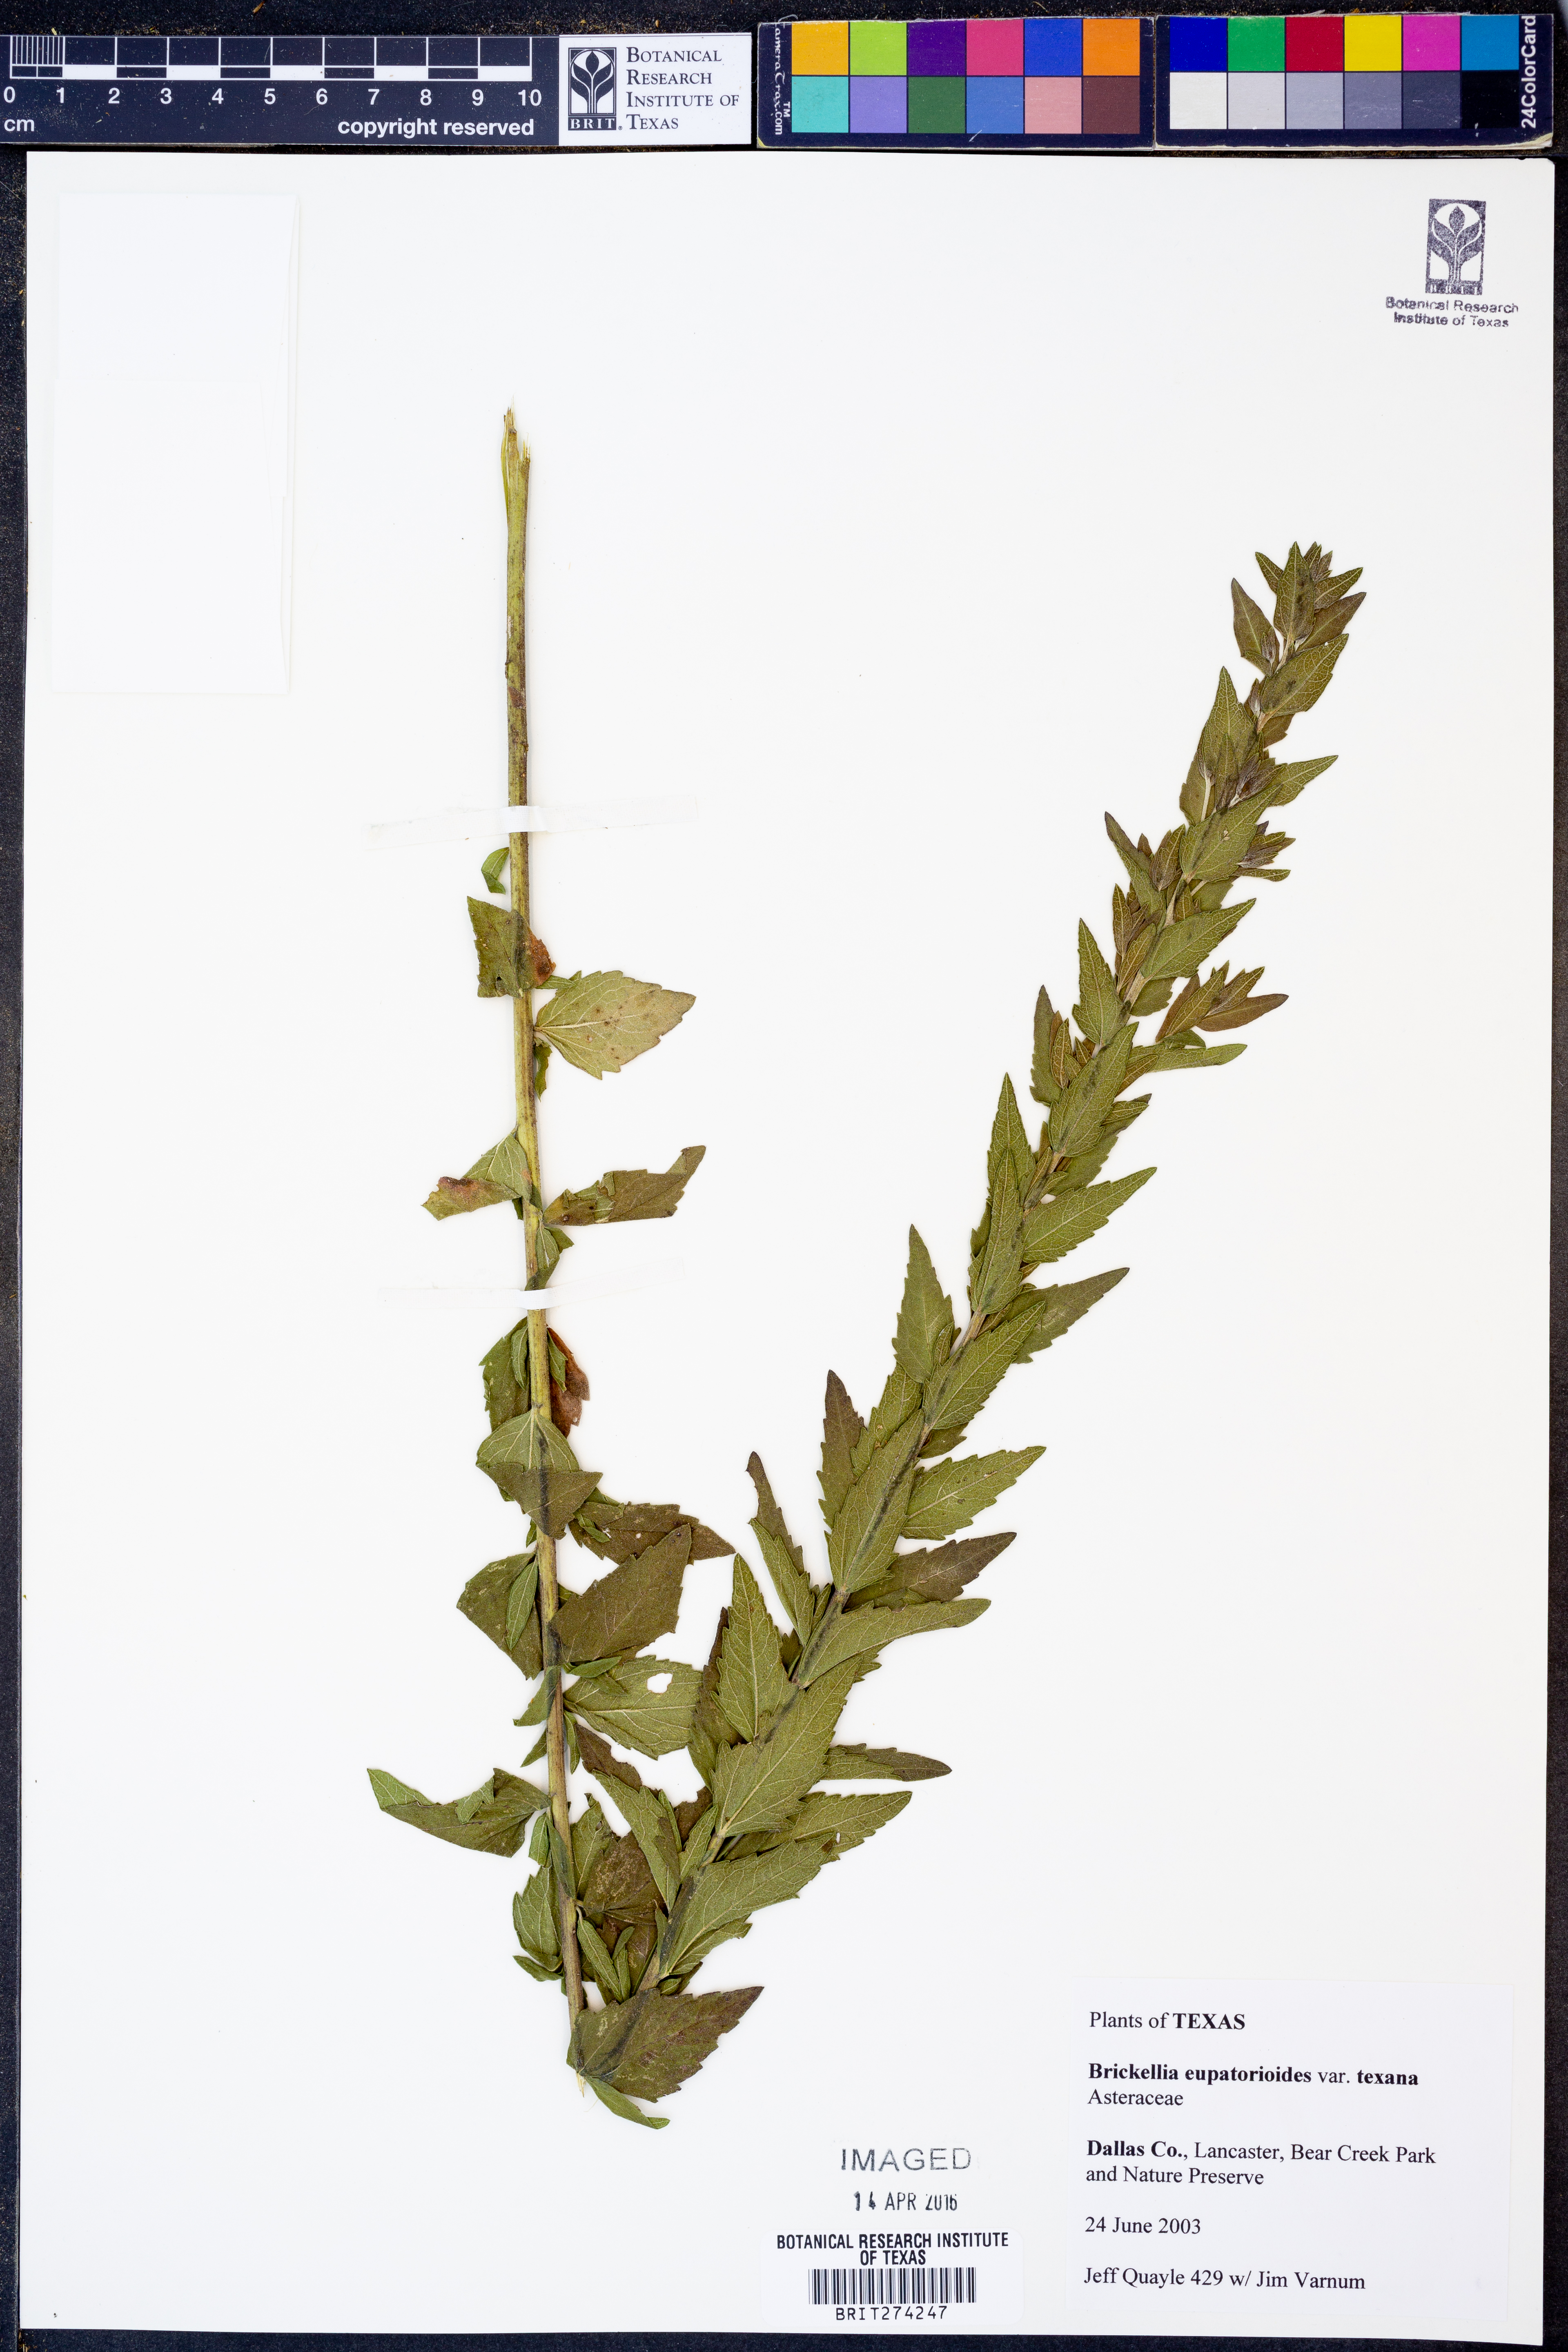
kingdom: Plantae
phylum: Tracheophyta
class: Magnoliopsida
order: Asterales
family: Asteraceae
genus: Brickellia
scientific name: Brickellia macranthra
